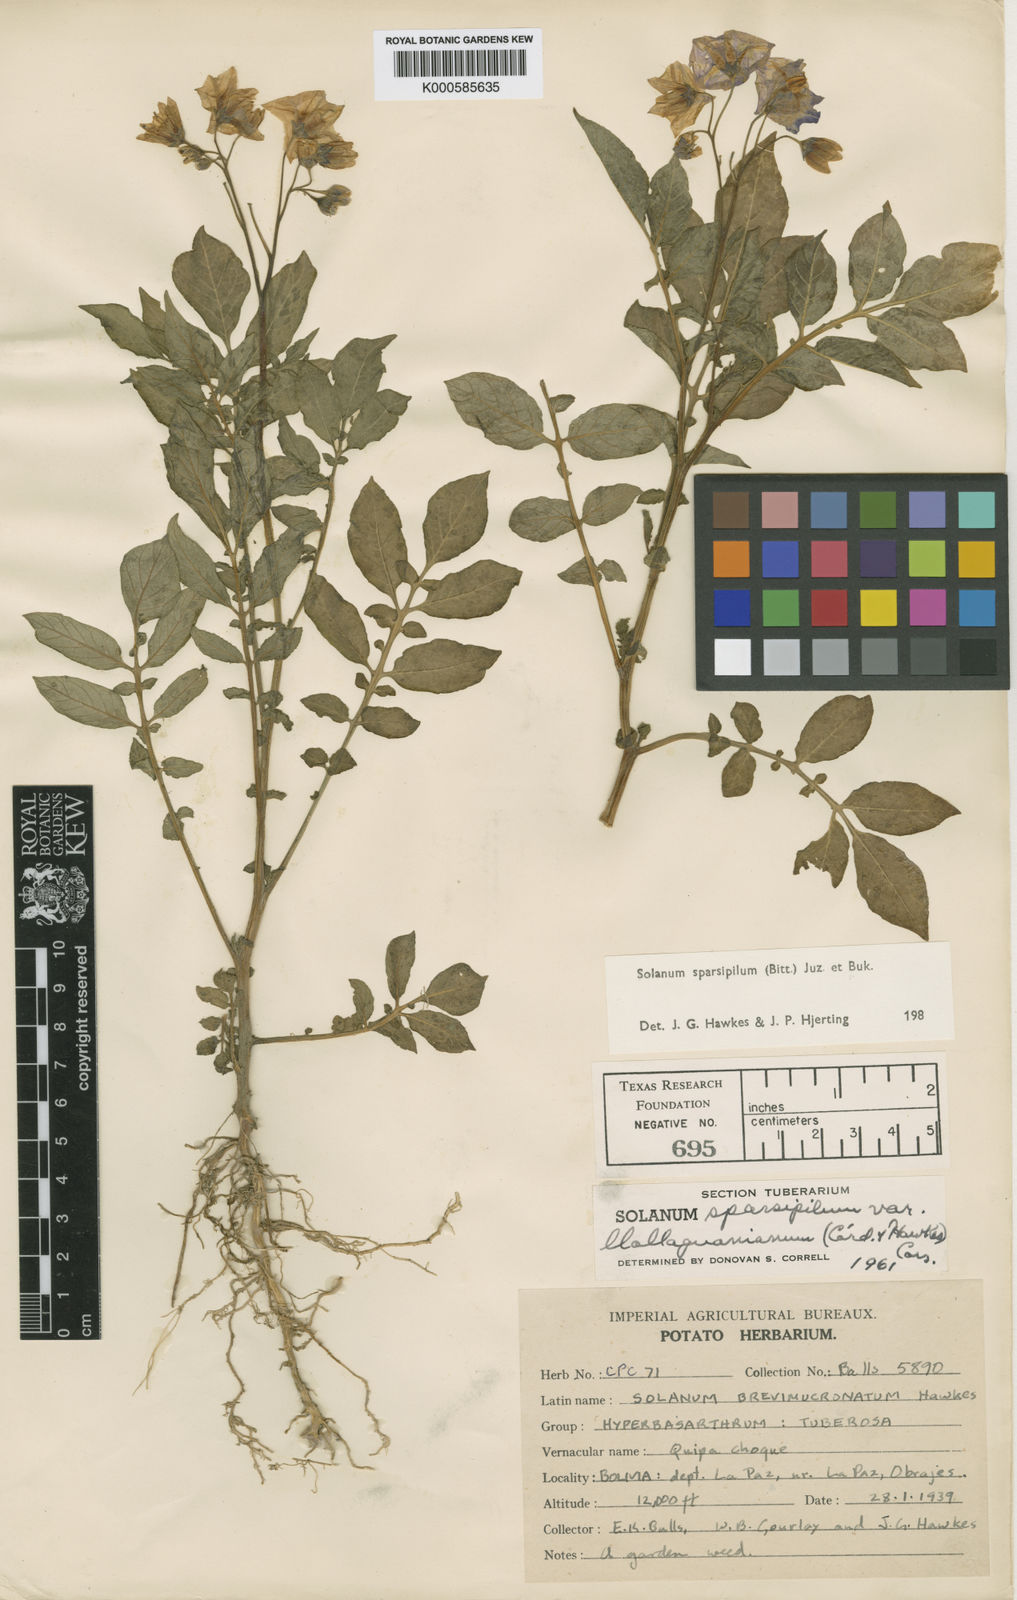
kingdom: Plantae
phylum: Tracheophyta
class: Magnoliopsida
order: Solanales
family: Solanaceae
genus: Solanum
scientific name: Solanum brevicaule
